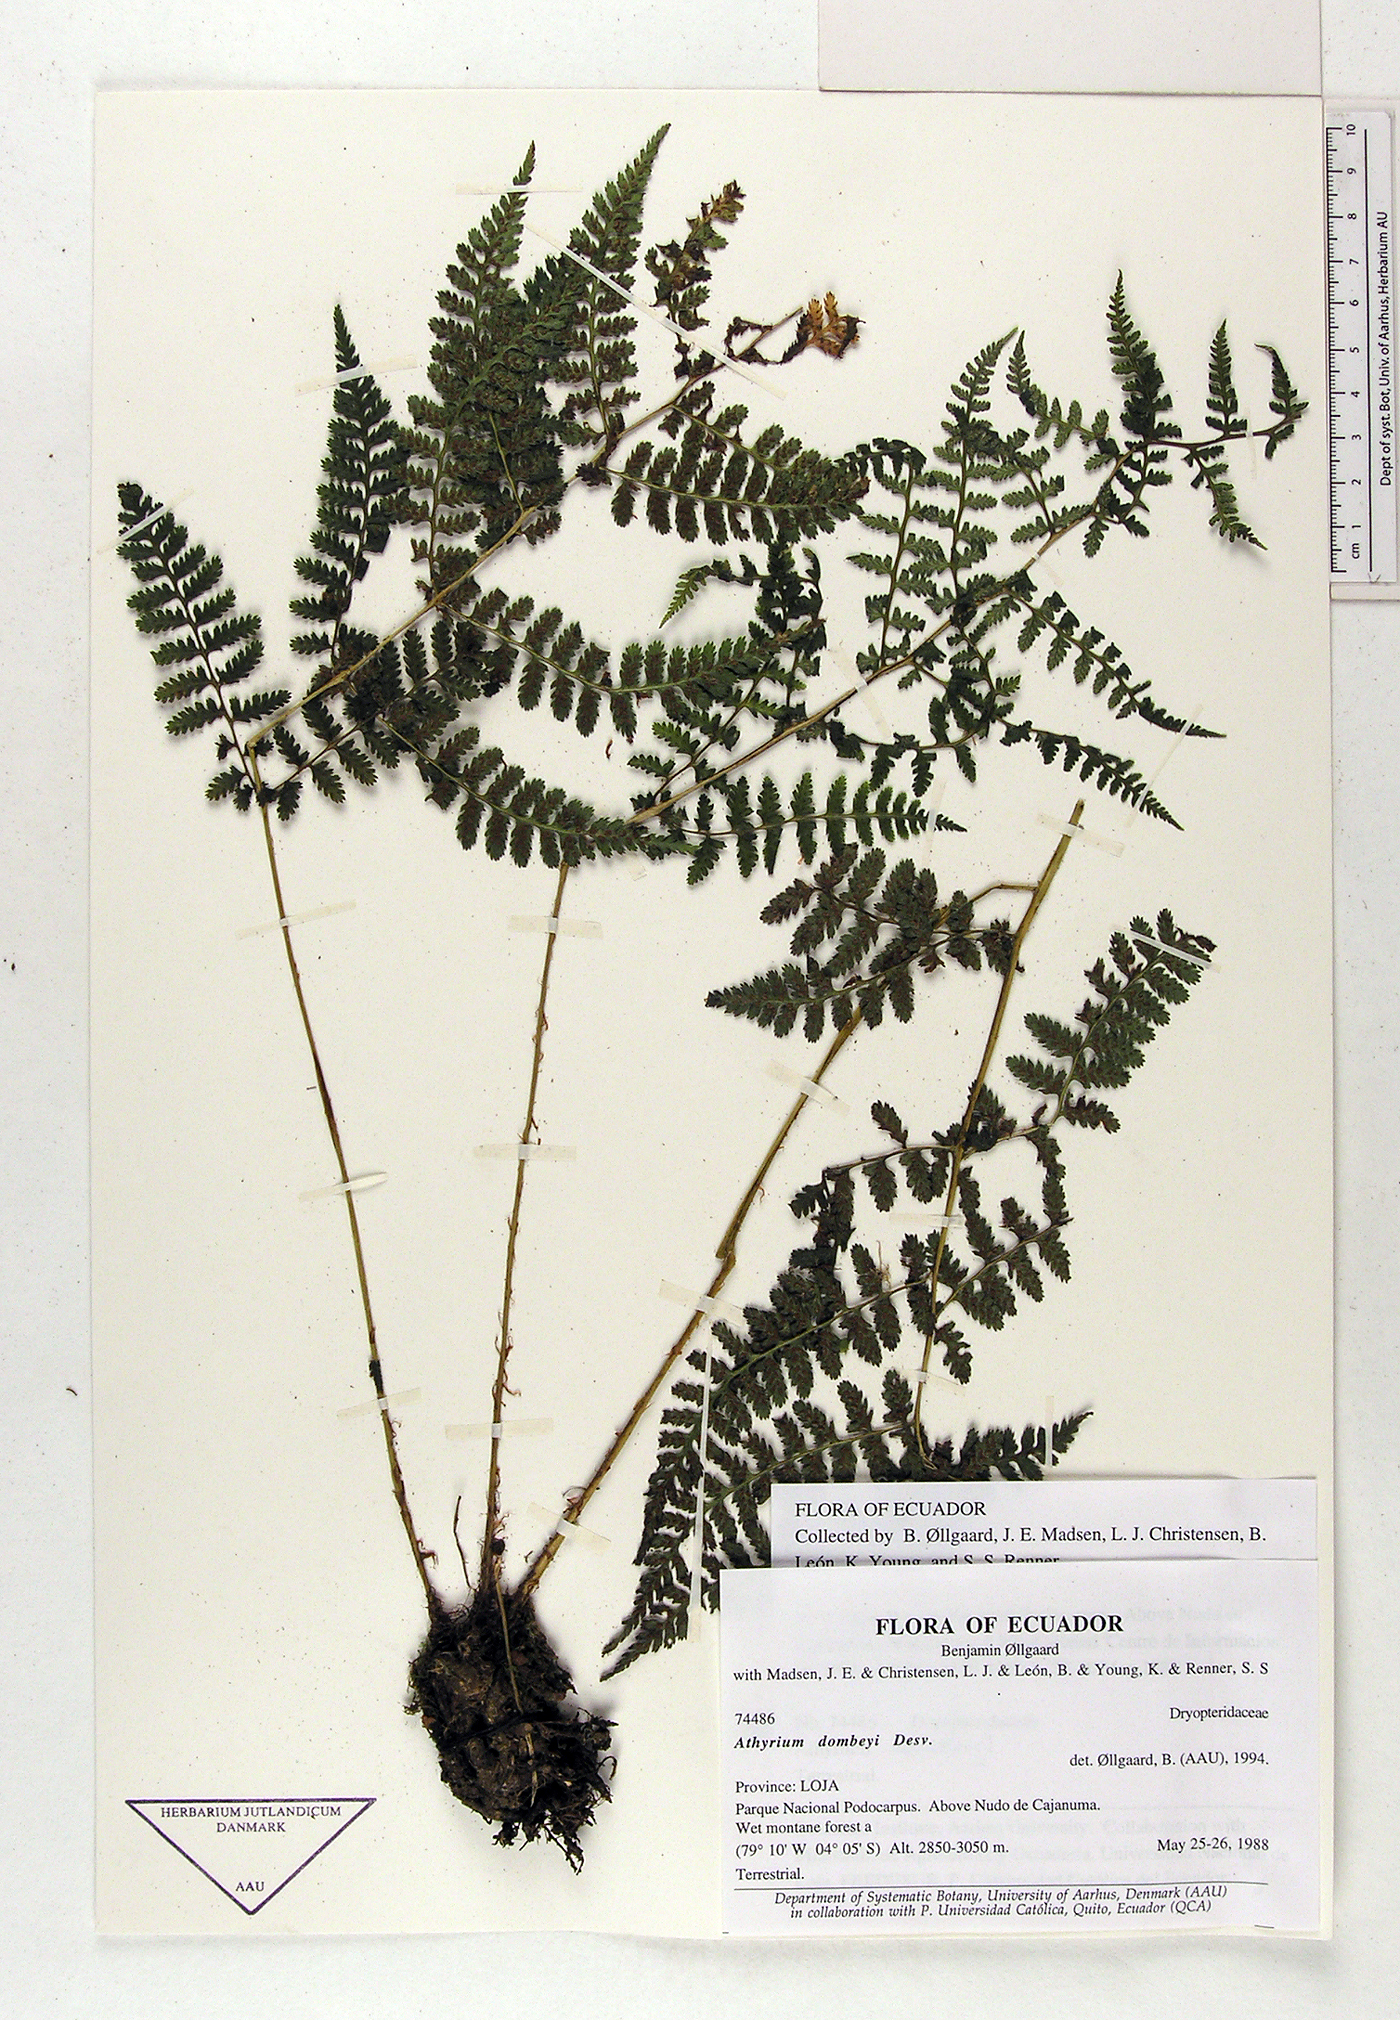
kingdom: Plantae
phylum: Tracheophyta
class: Polypodiopsida
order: Polypodiales
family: Athyriaceae
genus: Athyrium
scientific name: Athyrium dombeyi
